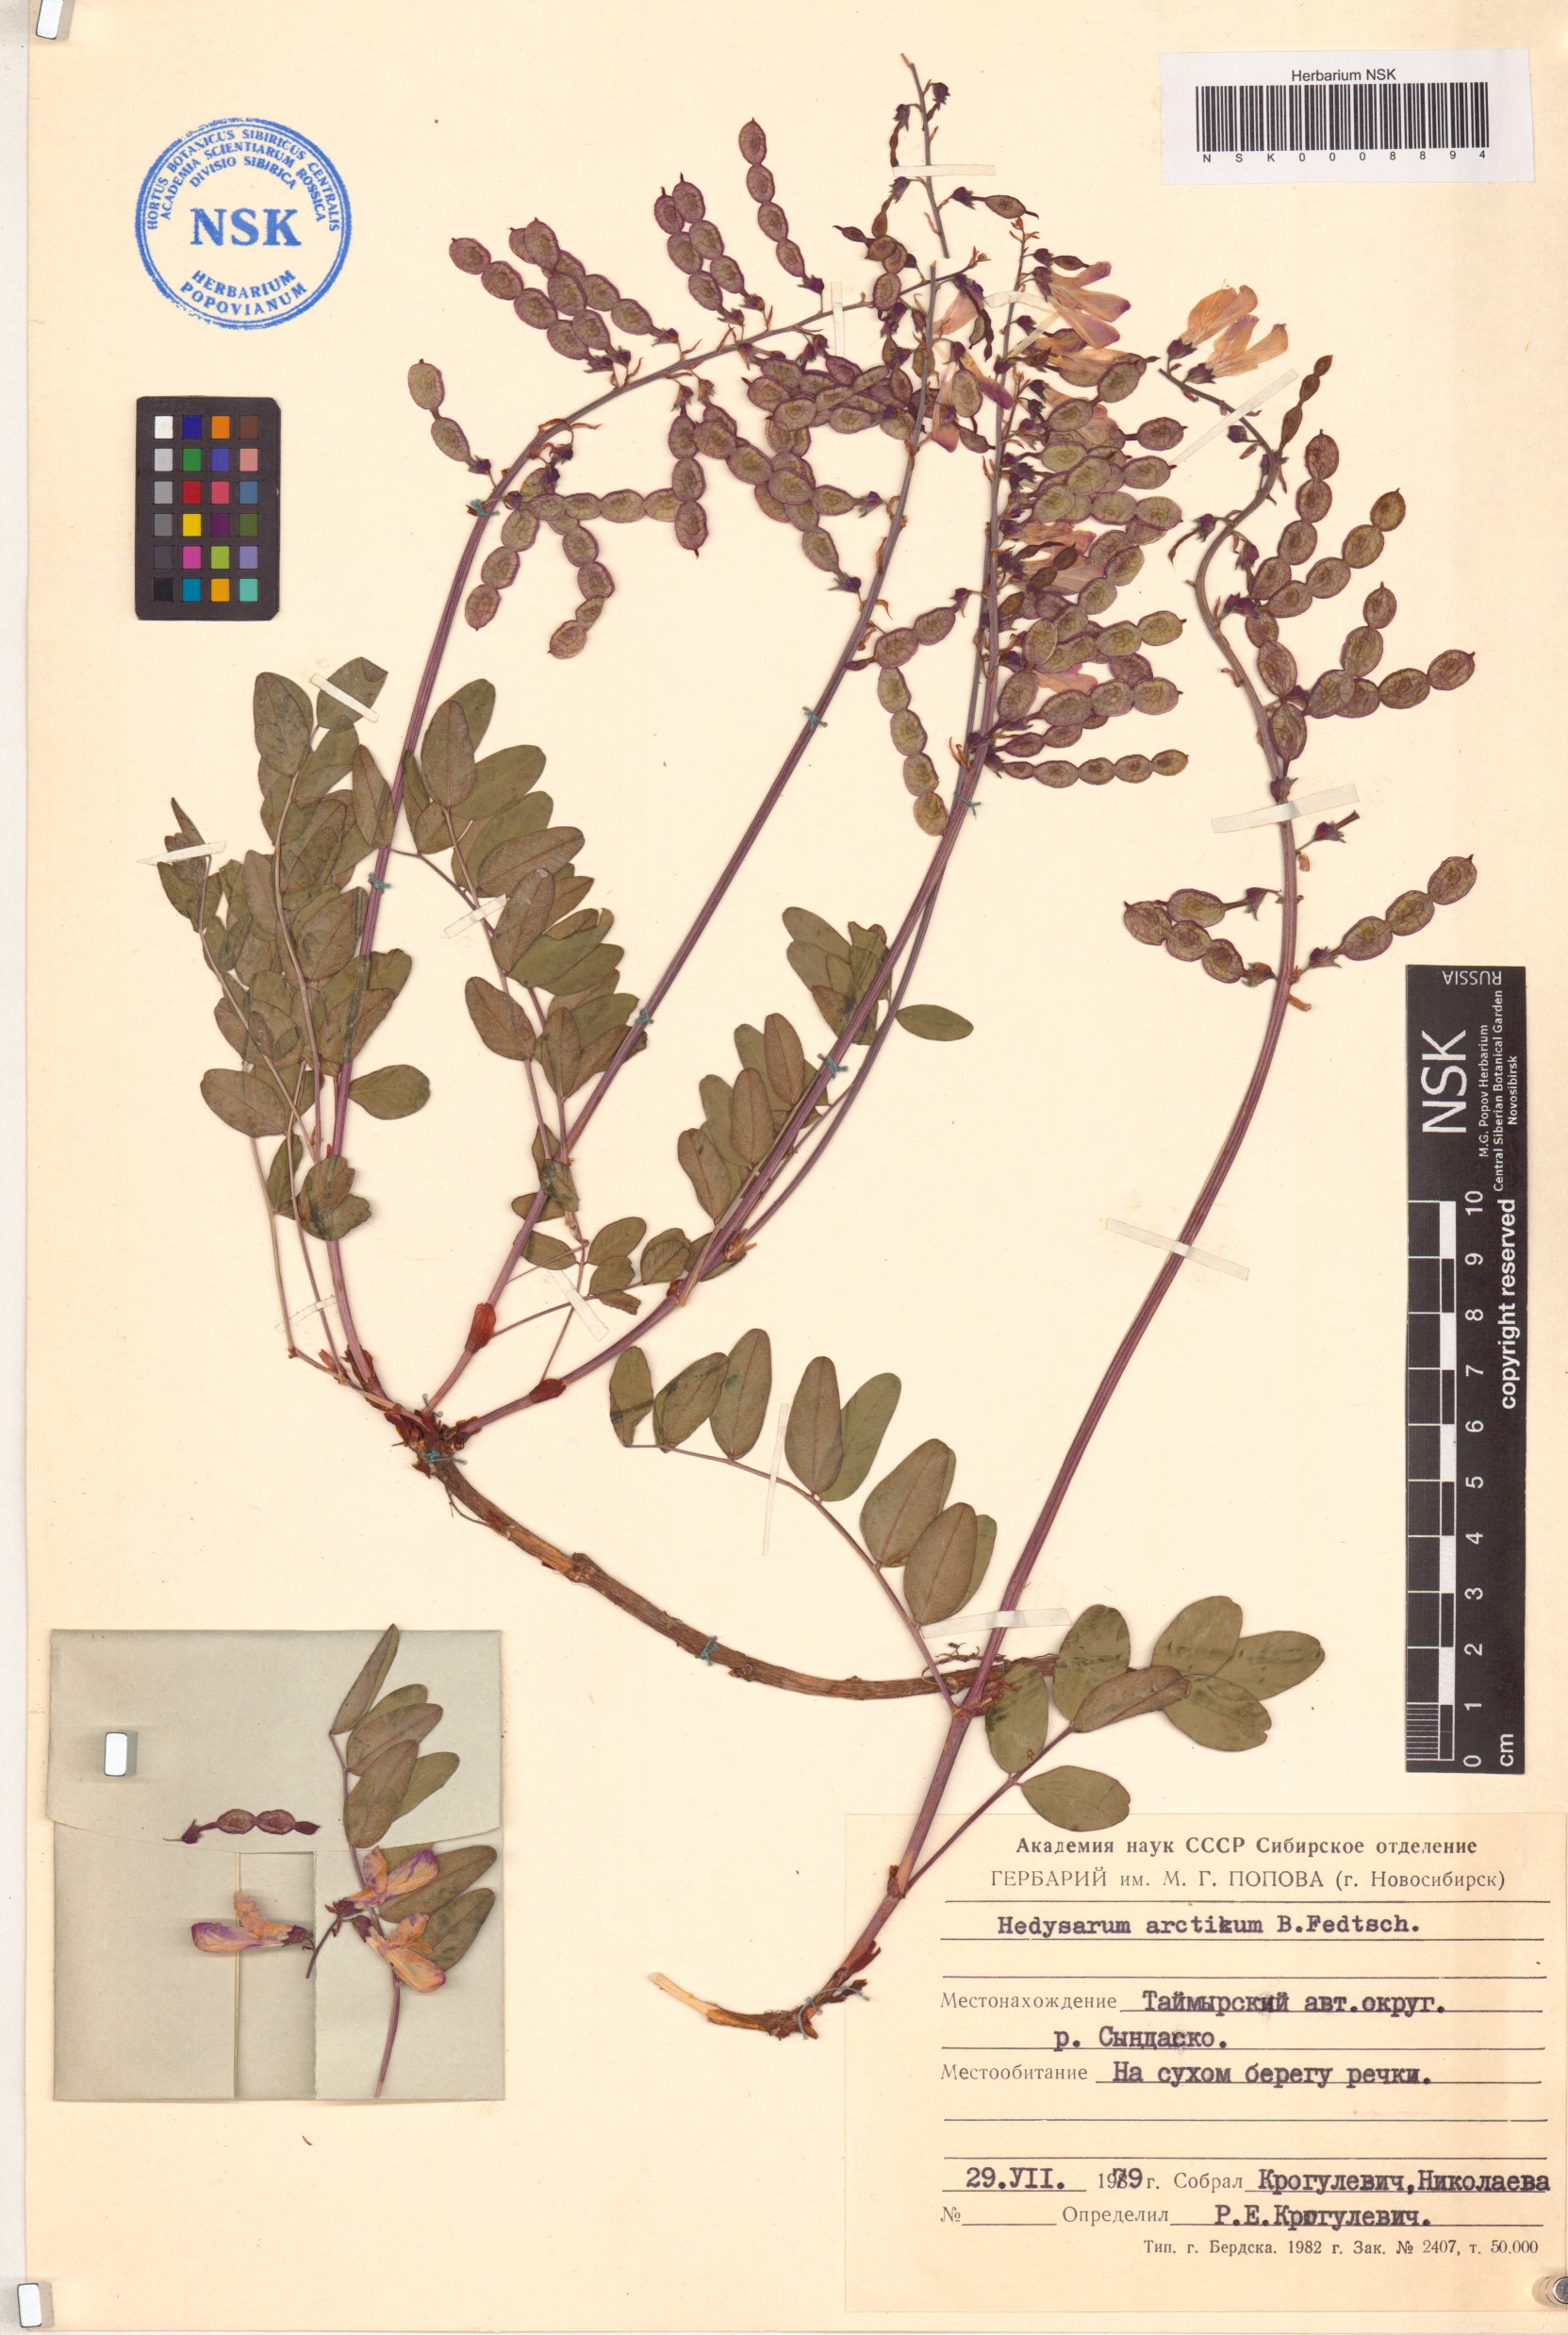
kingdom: Plantae
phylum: Tracheophyta
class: Magnoliopsida
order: Fabales
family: Fabaceae
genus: Hedysarum
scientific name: Hedysarum hedysaroides
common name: Alpine french-honeysuckle
